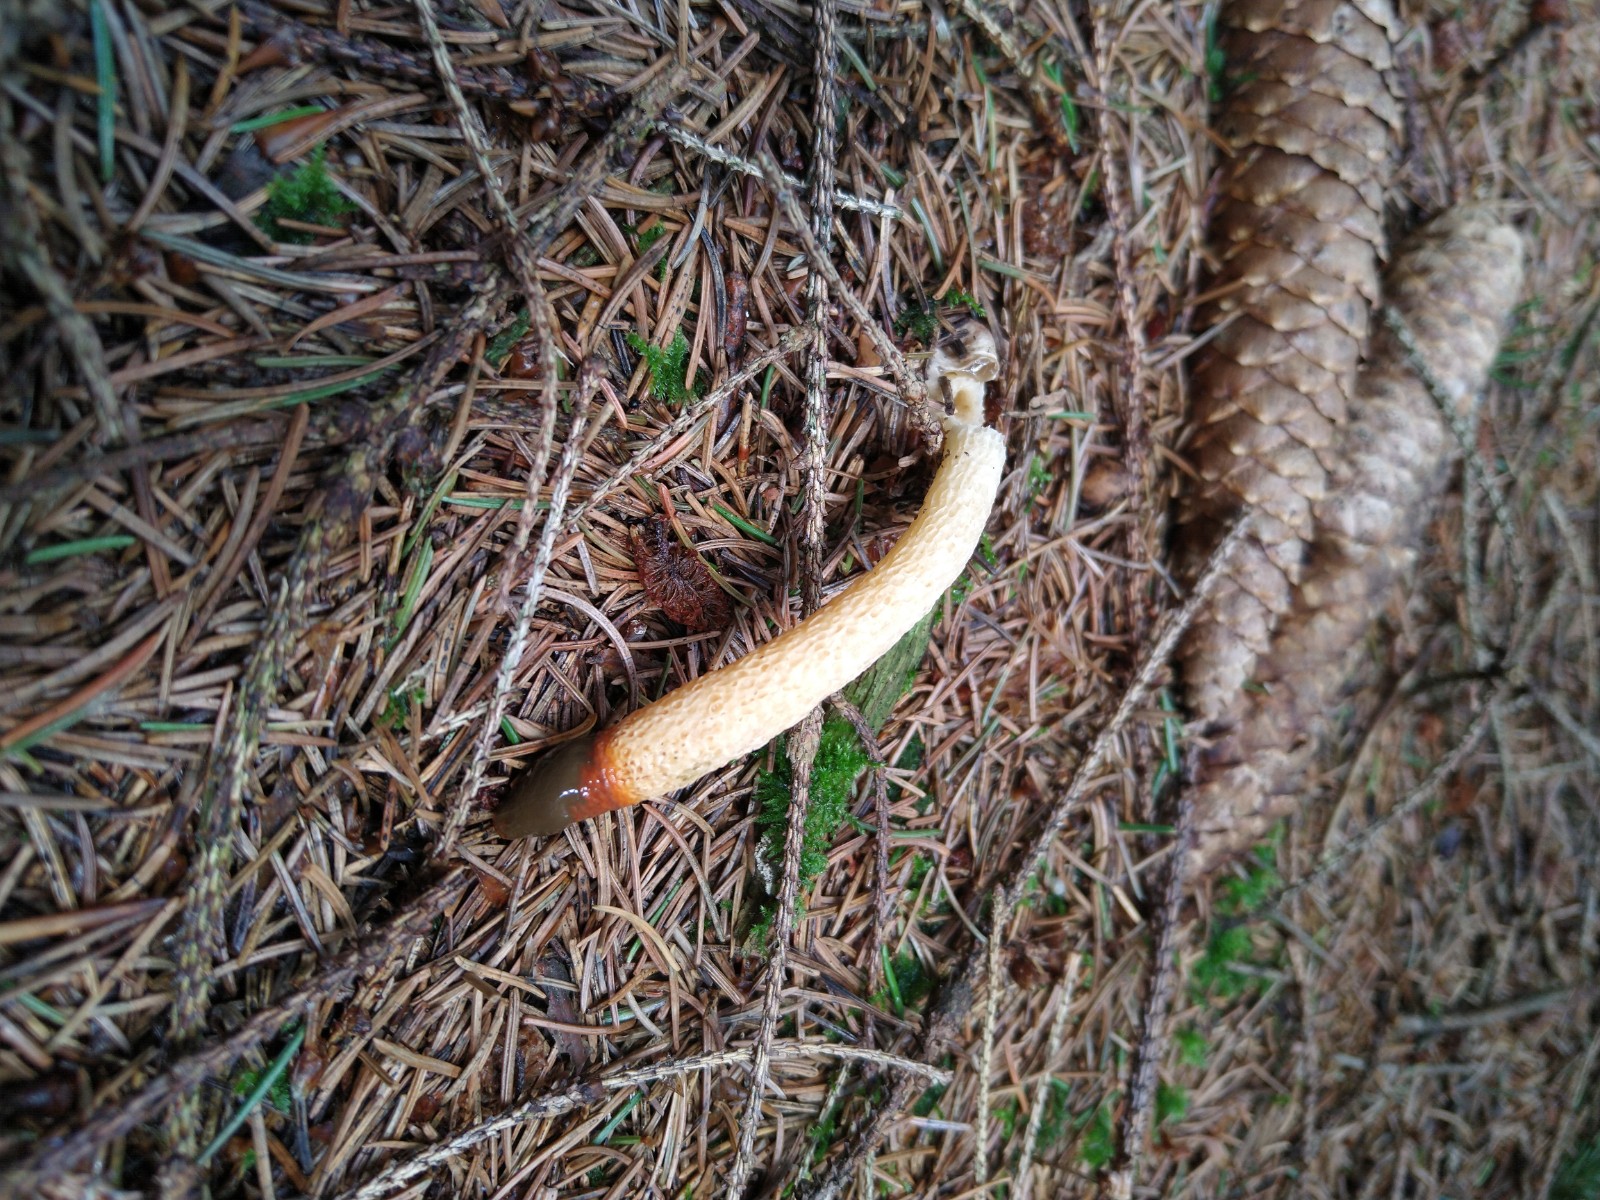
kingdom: Fungi
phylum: Basidiomycota
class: Agaricomycetes
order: Phallales
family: Phallaceae
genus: Mutinus
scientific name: Mutinus caninus
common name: hunde-stinksvamp
